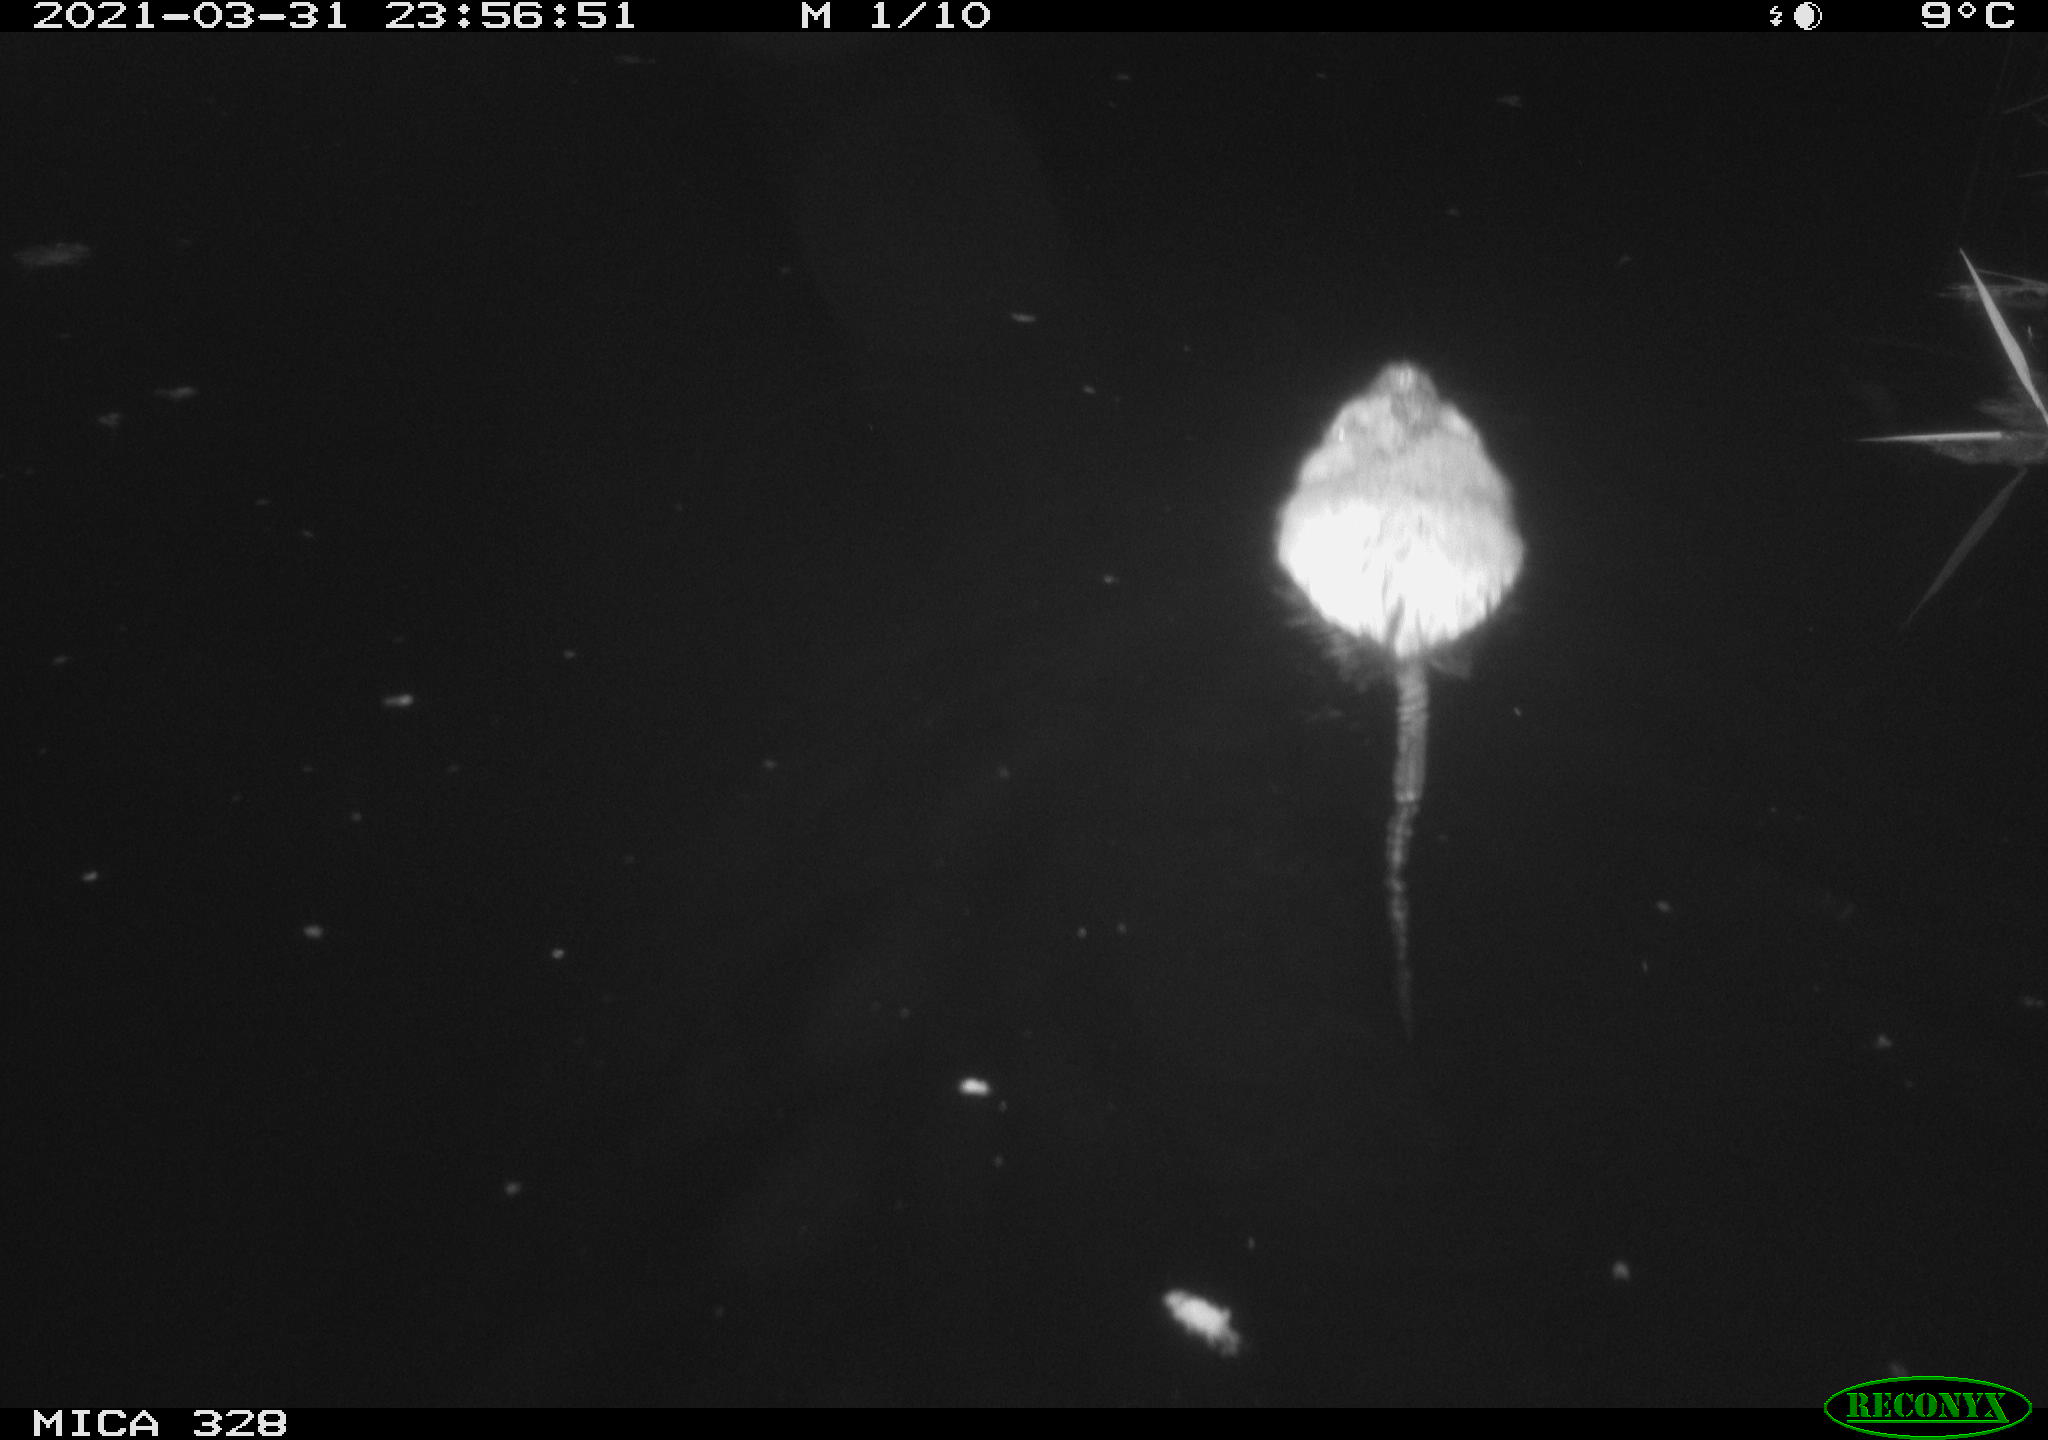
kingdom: Animalia
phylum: Chordata
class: Mammalia
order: Rodentia
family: Cricetidae
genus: Ondatra
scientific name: Ondatra zibethicus
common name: Muskrat
